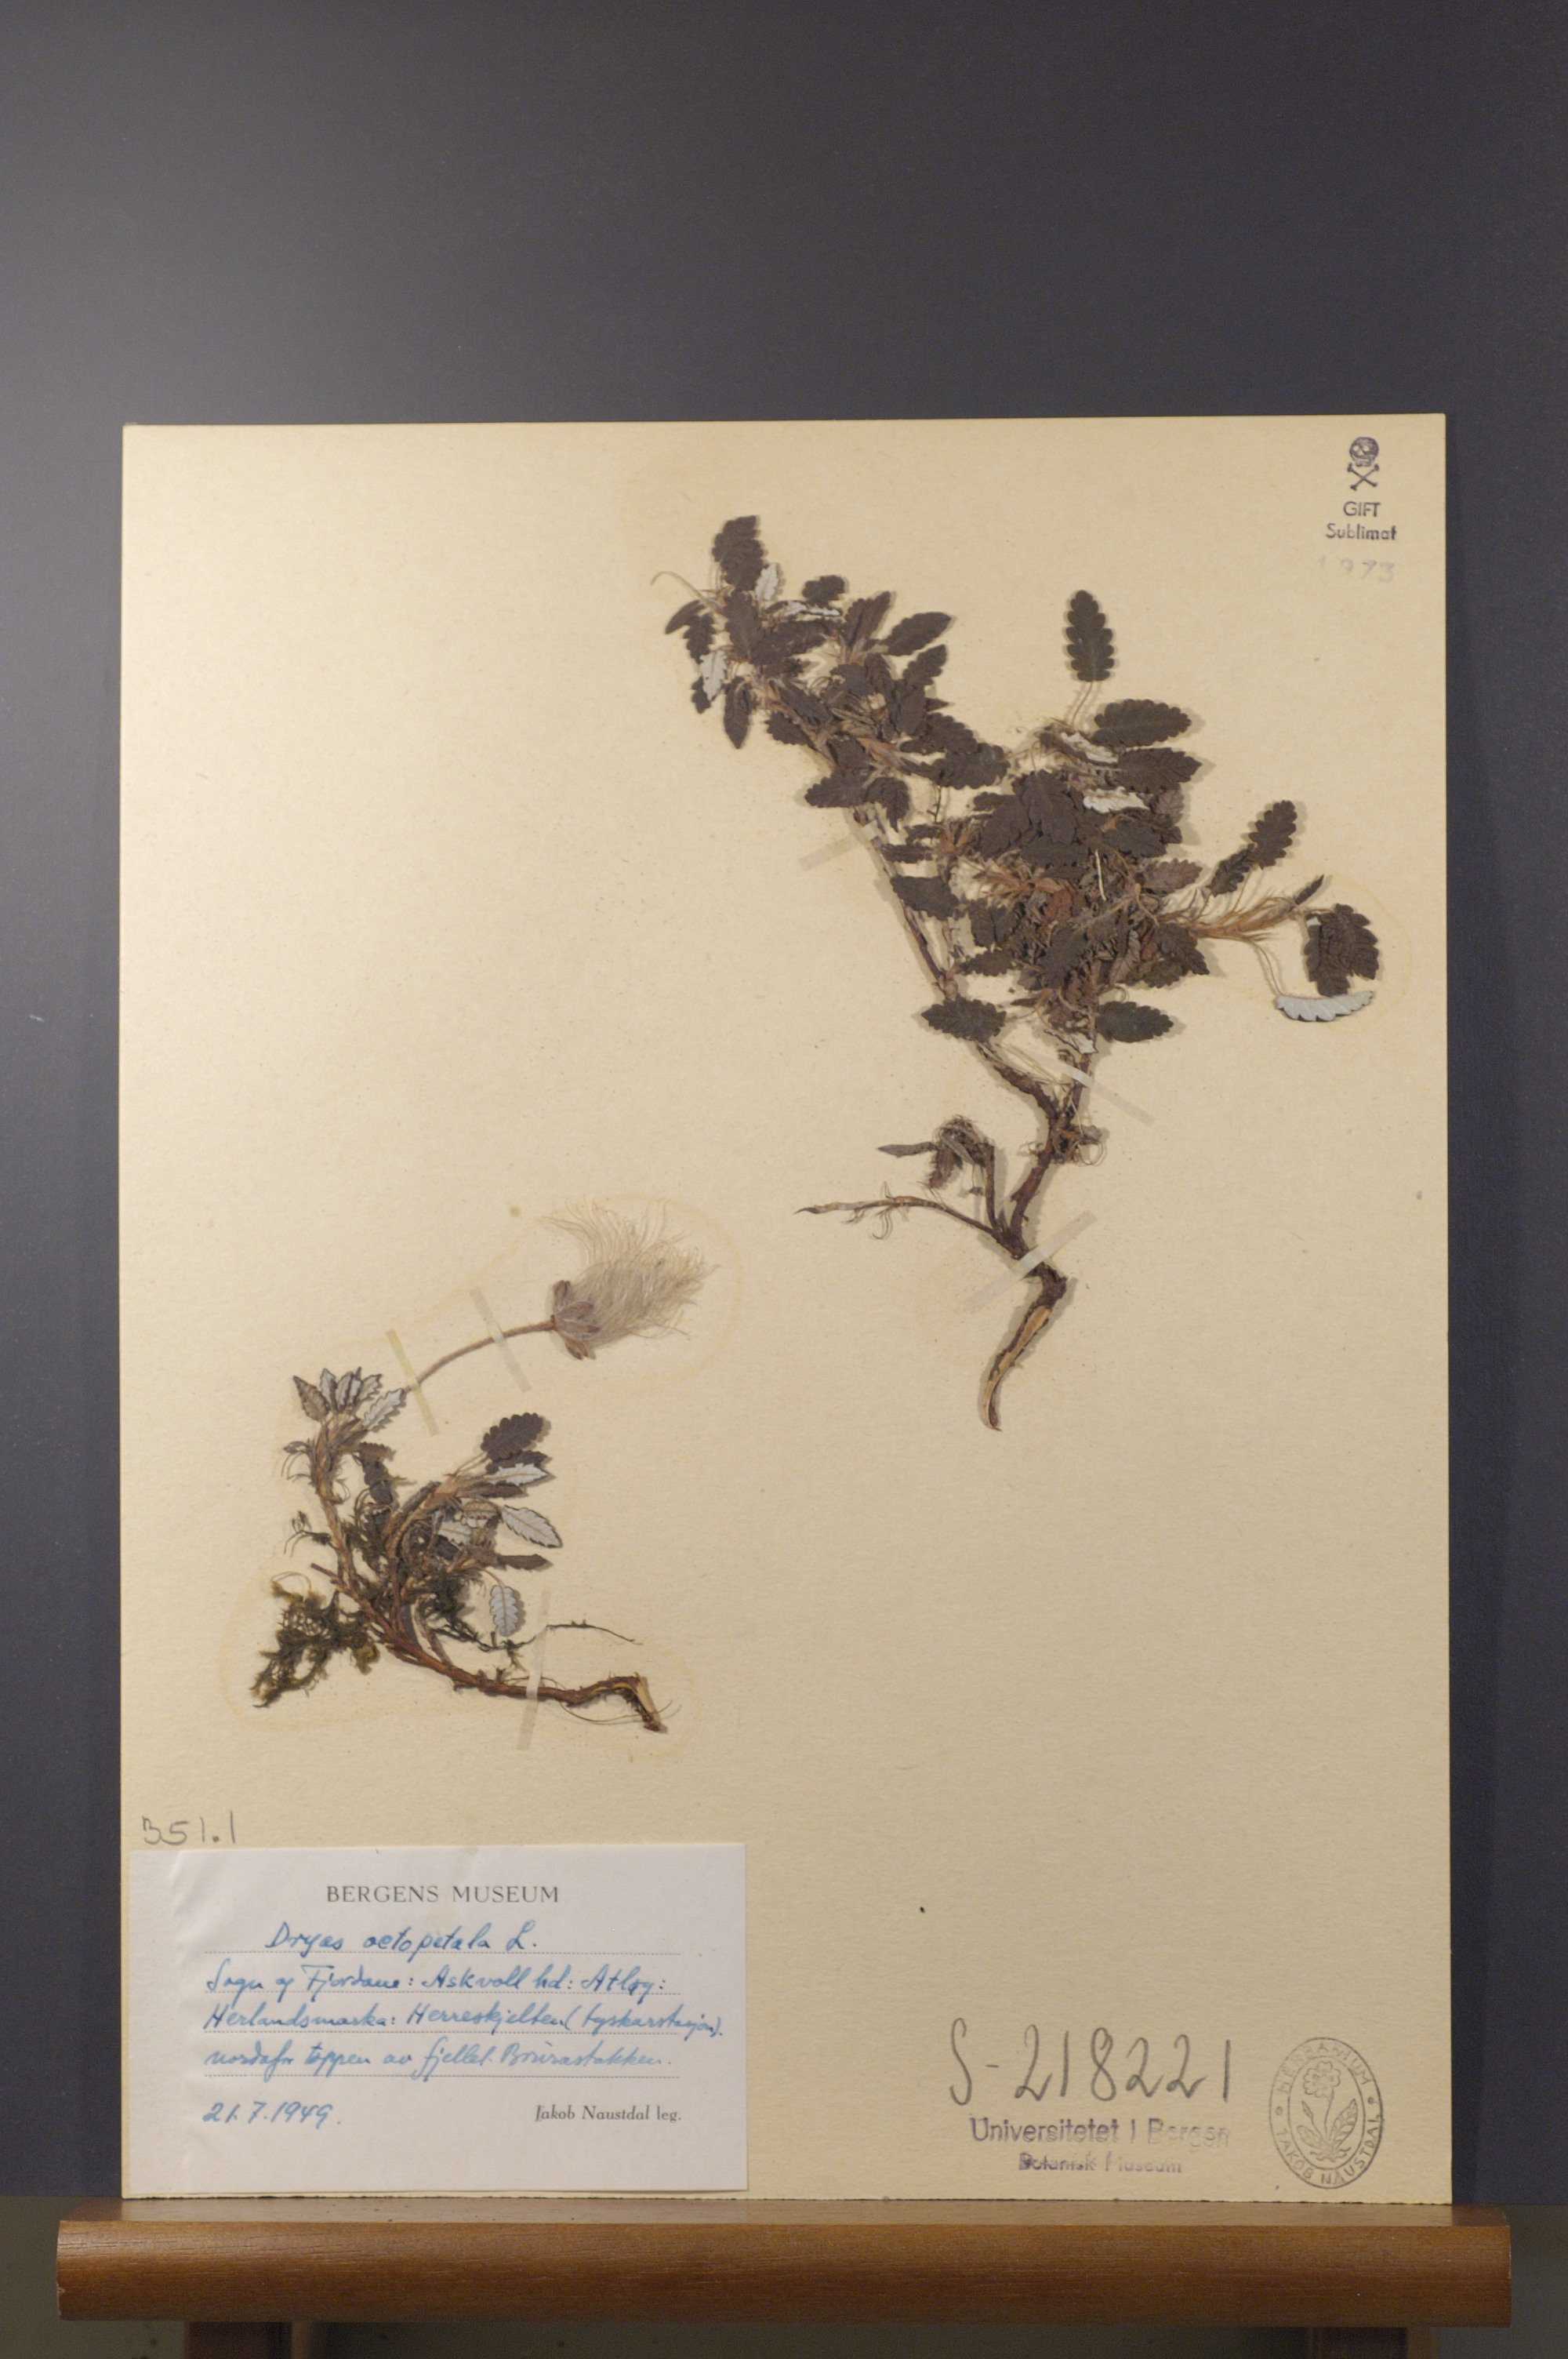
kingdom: Plantae
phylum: Tracheophyta
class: Magnoliopsida
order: Rosales
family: Rosaceae
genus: Dryas
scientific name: Dryas octopetala
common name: Eight-petal mountain-avens
